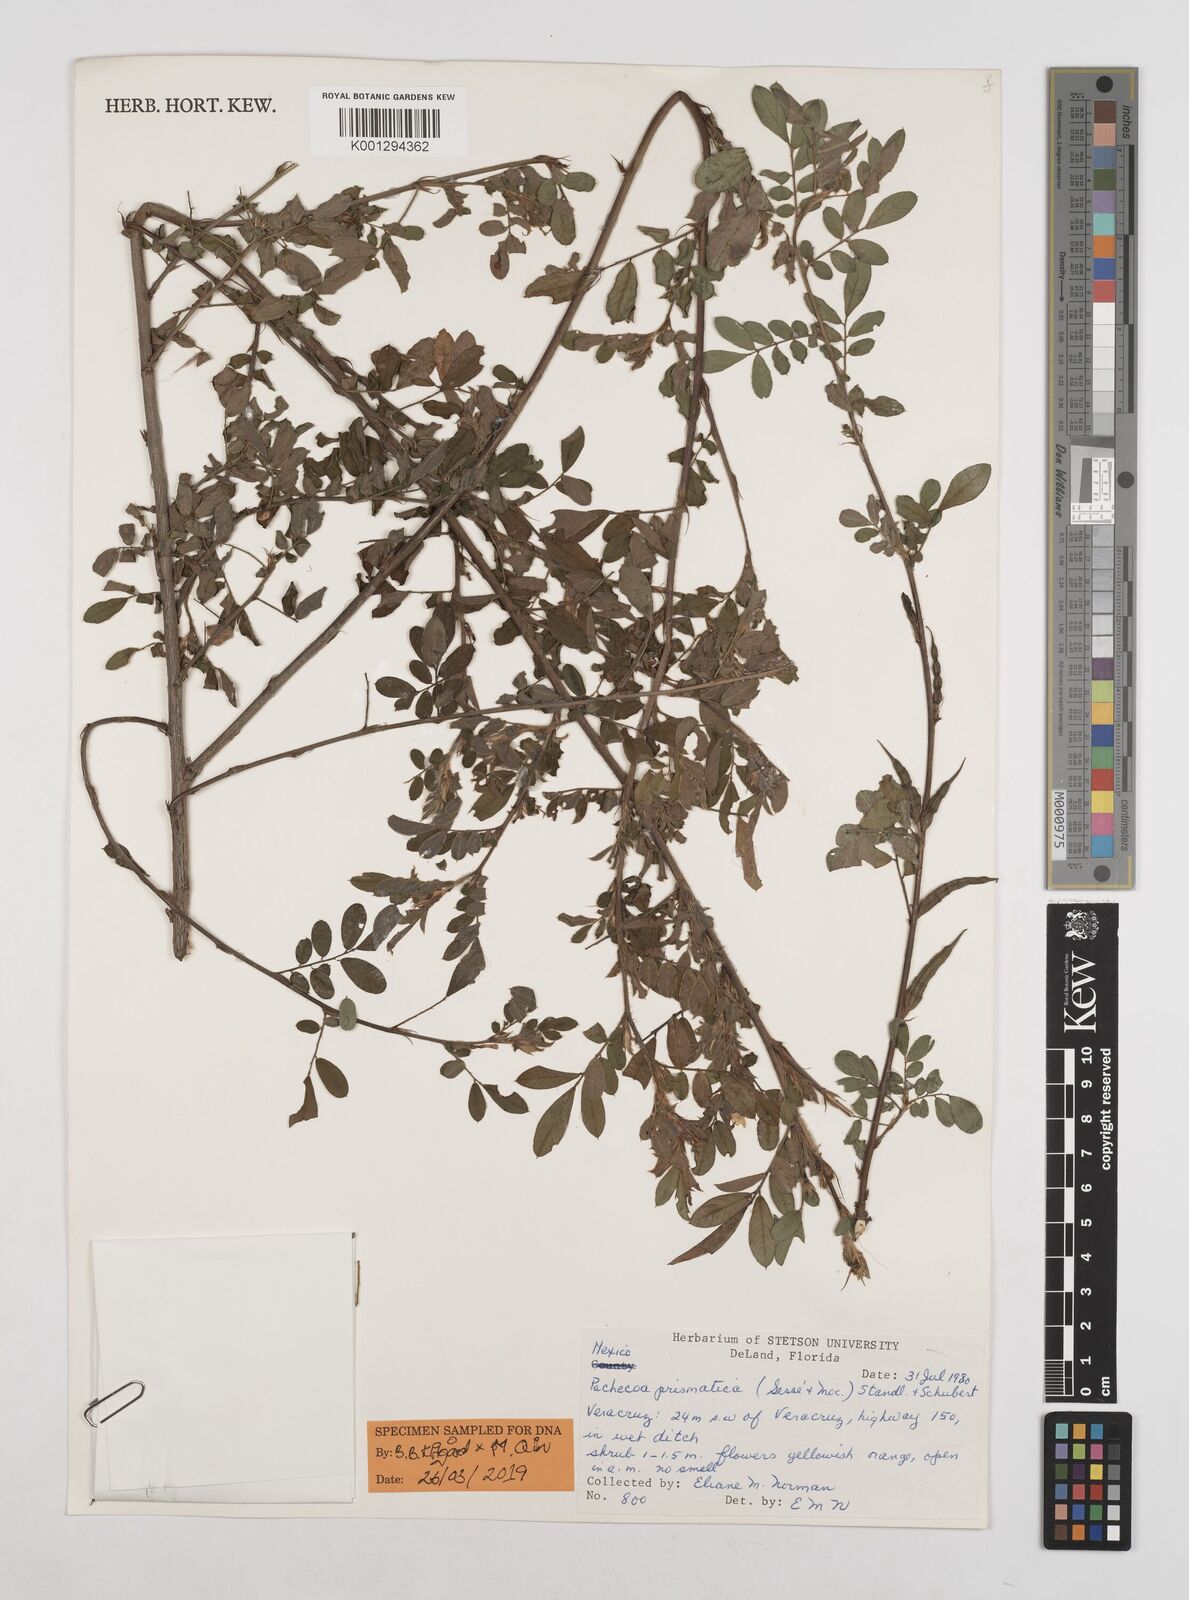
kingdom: Plantae
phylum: Tracheophyta
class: Magnoliopsida
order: Fabales
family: Fabaceae
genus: Chapmannia
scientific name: Chapmannia floridana
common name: Alicia
